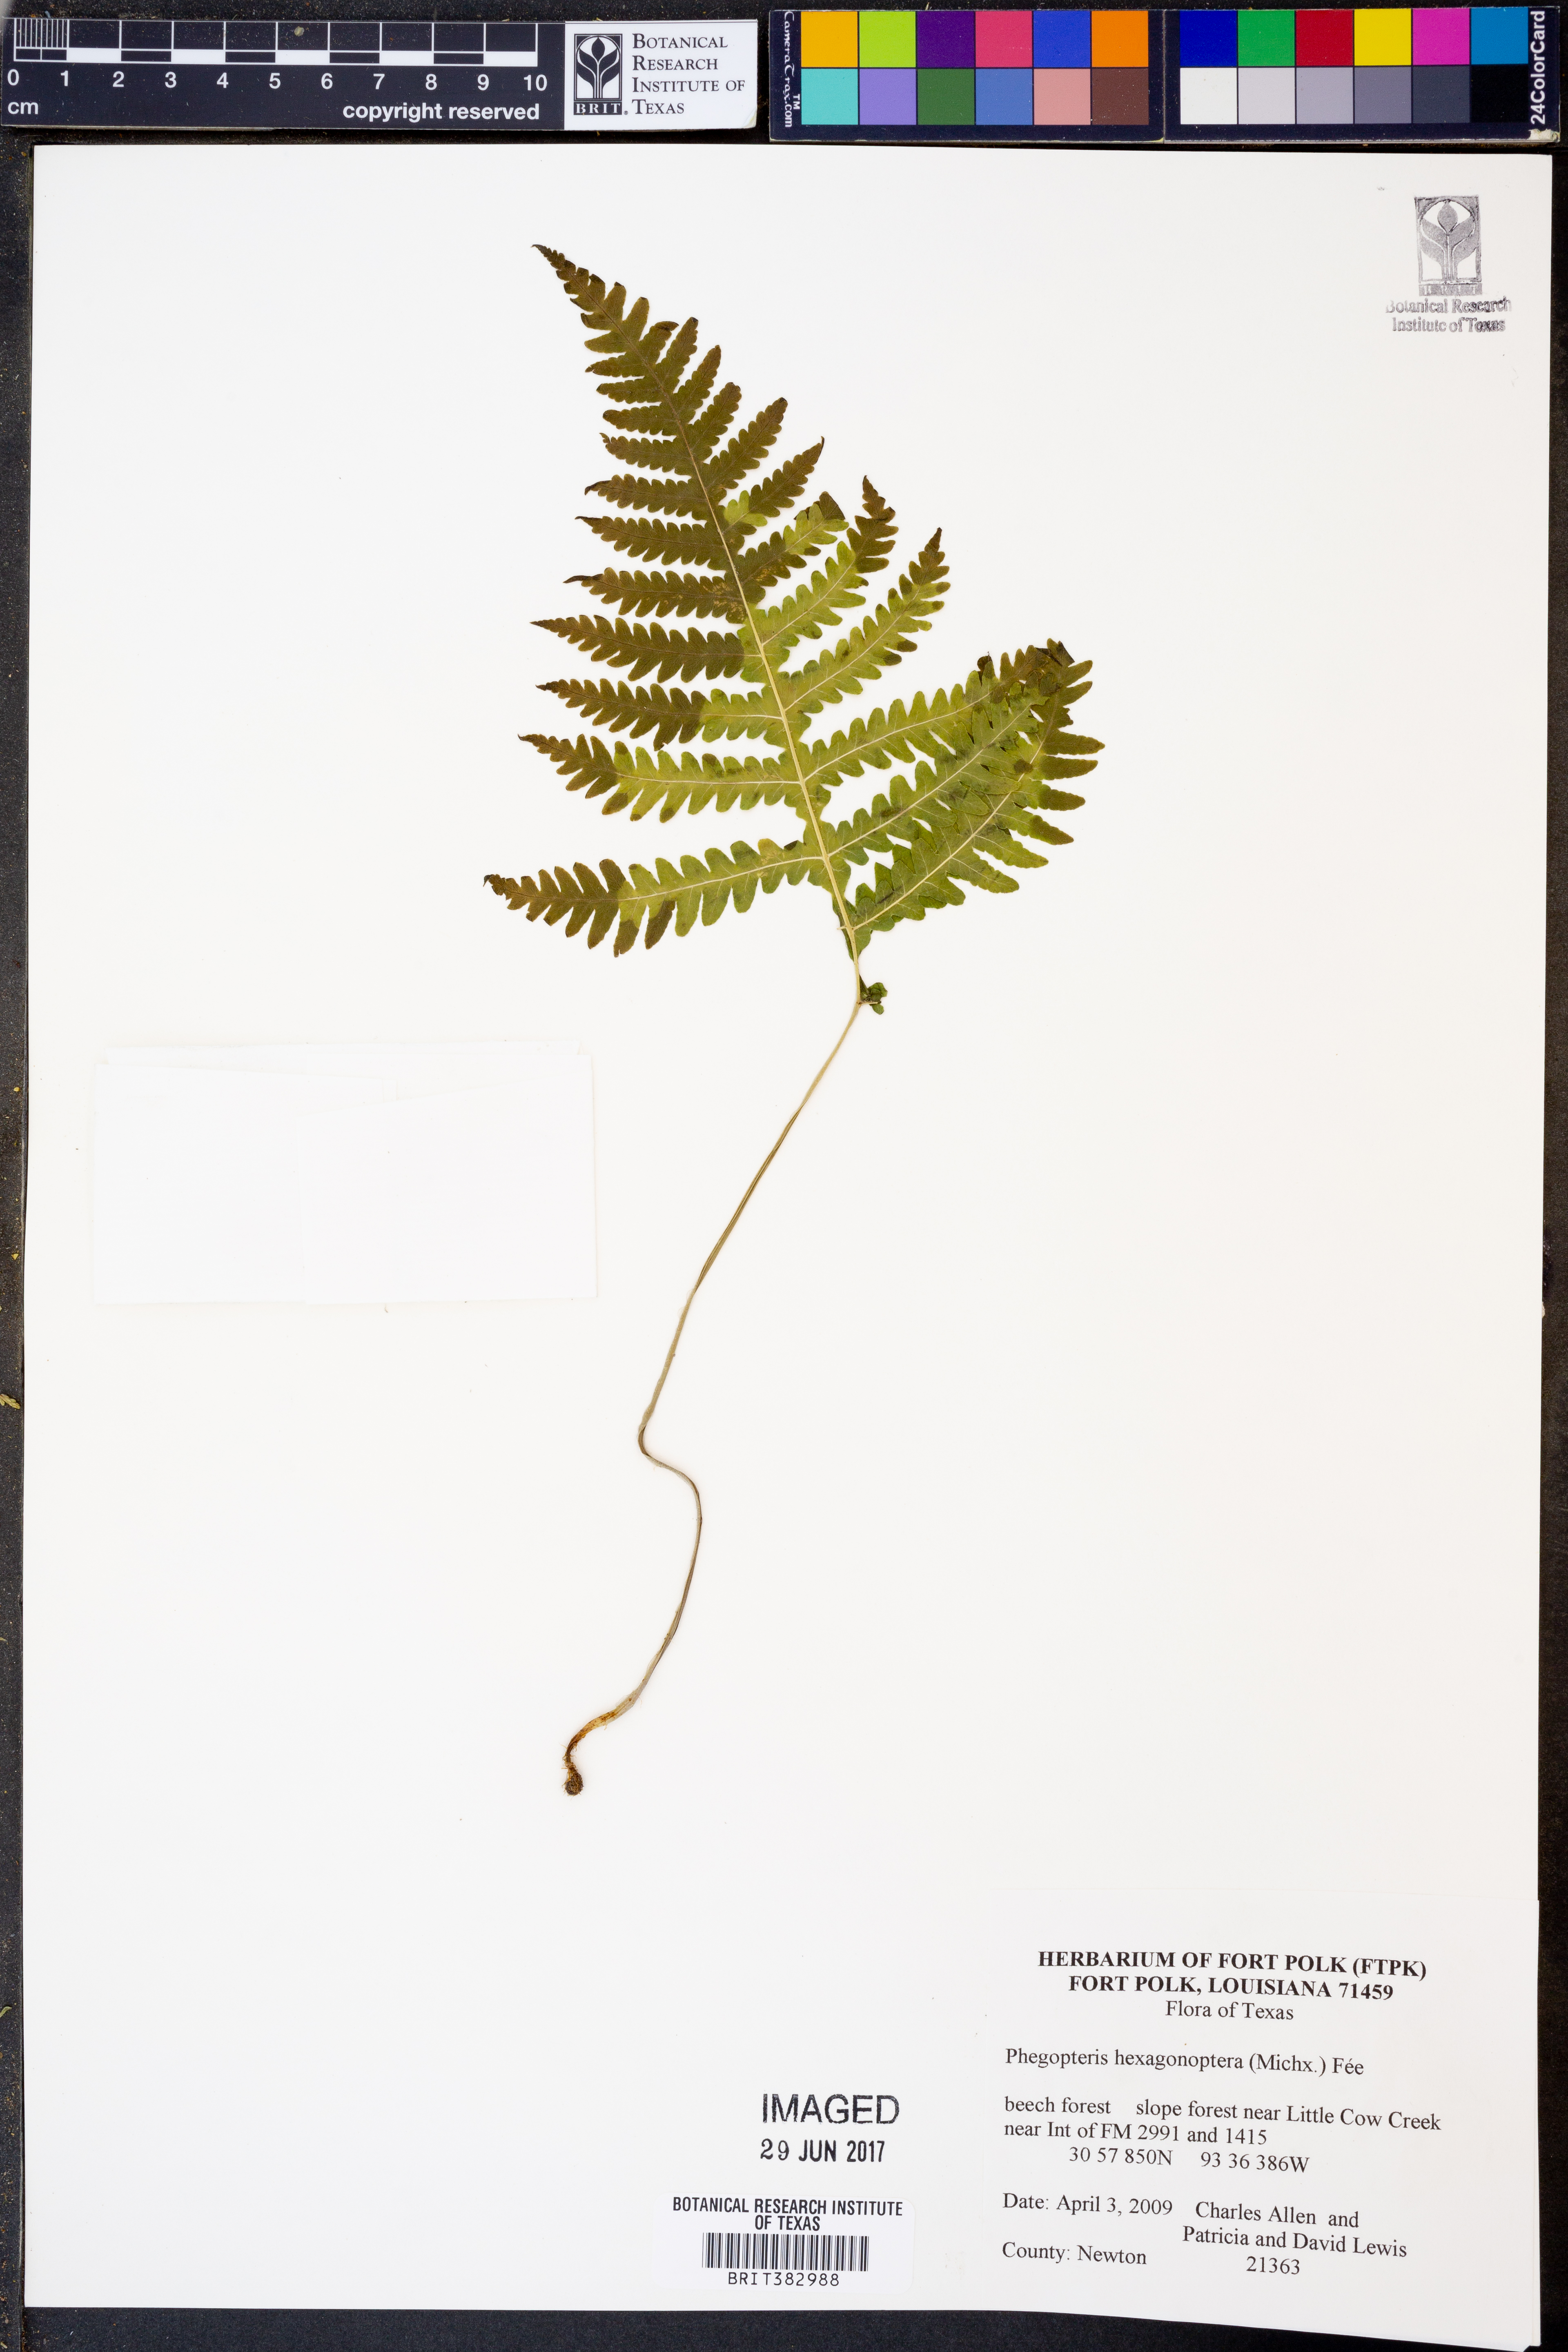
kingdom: Plantae
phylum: Tracheophyta
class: Polypodiopsida
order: Polypodiales
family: Thelypteridaceae
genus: Phegopteris
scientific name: Phegopteris hexagonoptera
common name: Broad beech fern
